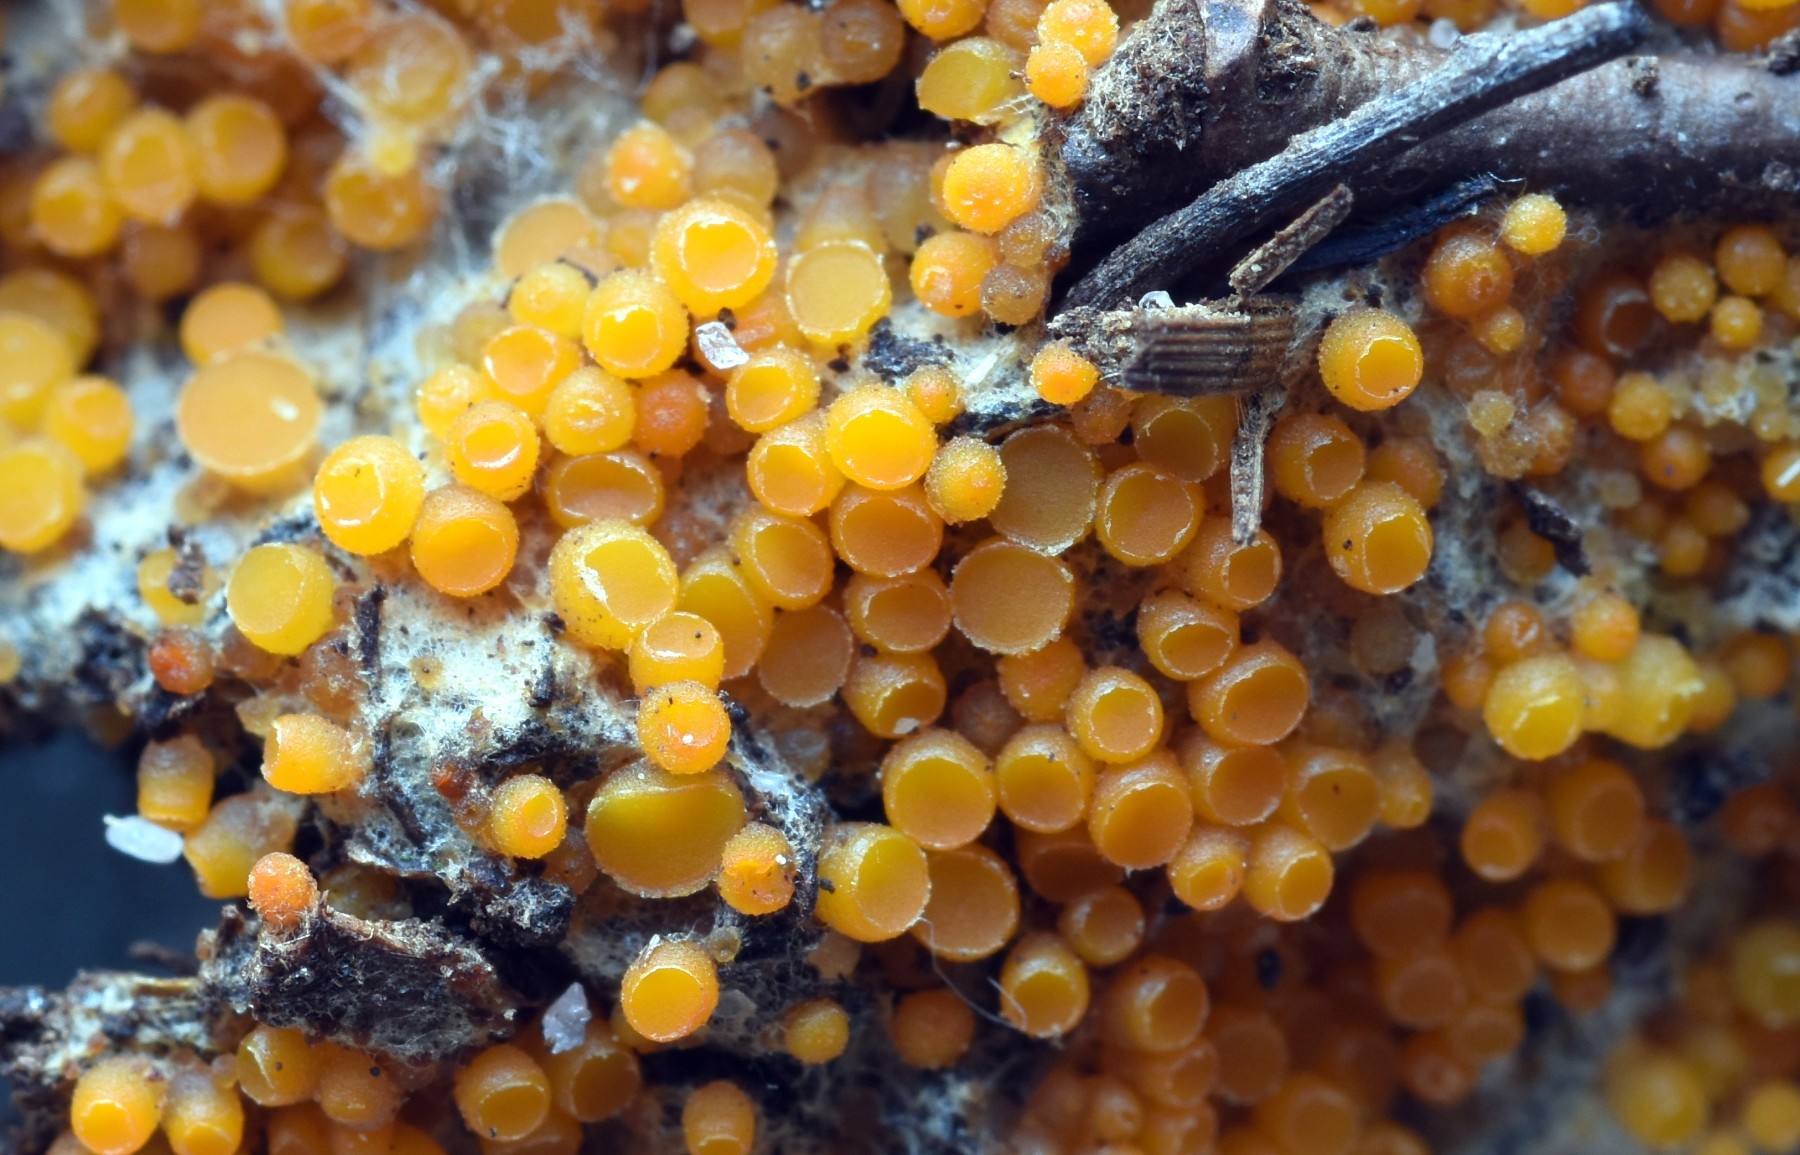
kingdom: Fungi
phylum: Ascomycota
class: Pezizomycetes
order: Pezizales
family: Pyronemataceae
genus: Byssonectria
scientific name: Byssonectria terrestris
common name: hjortebæger
